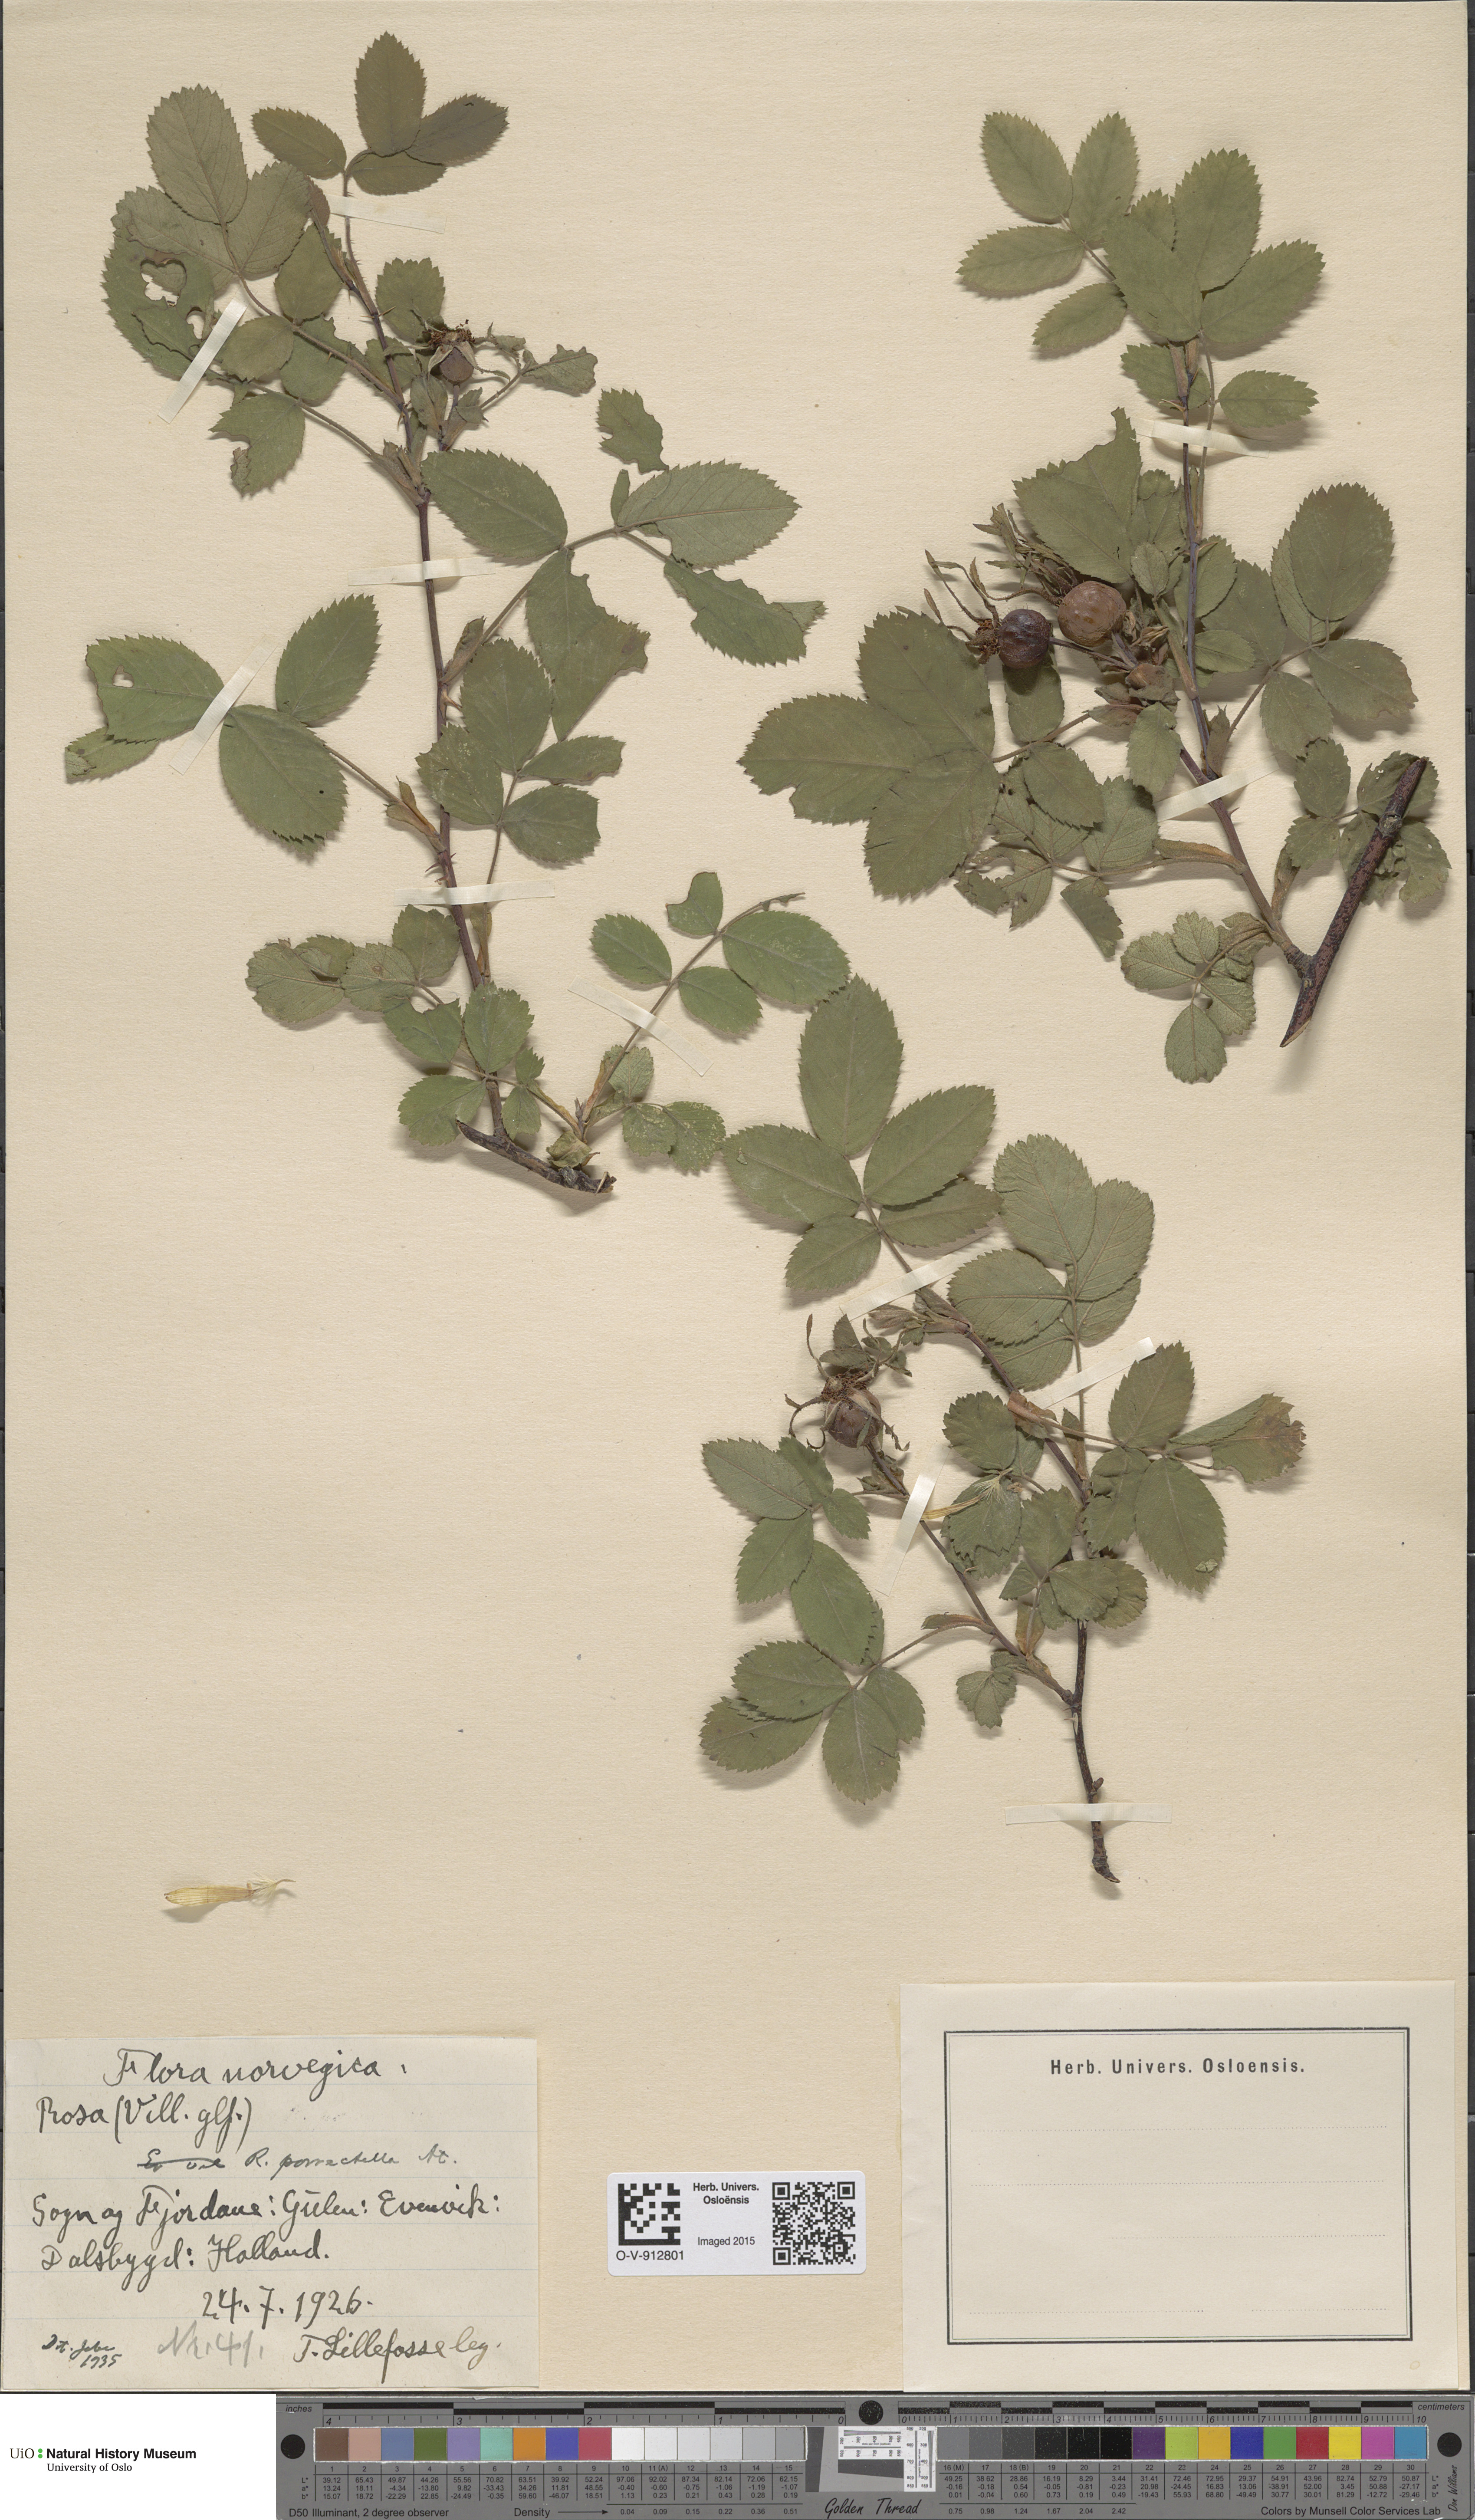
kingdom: Plantae
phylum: Tracheophyta
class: Magnoliopsida
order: Rosales
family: Rosaceae
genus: Rosa
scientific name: Rosa mollis
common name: Rose
